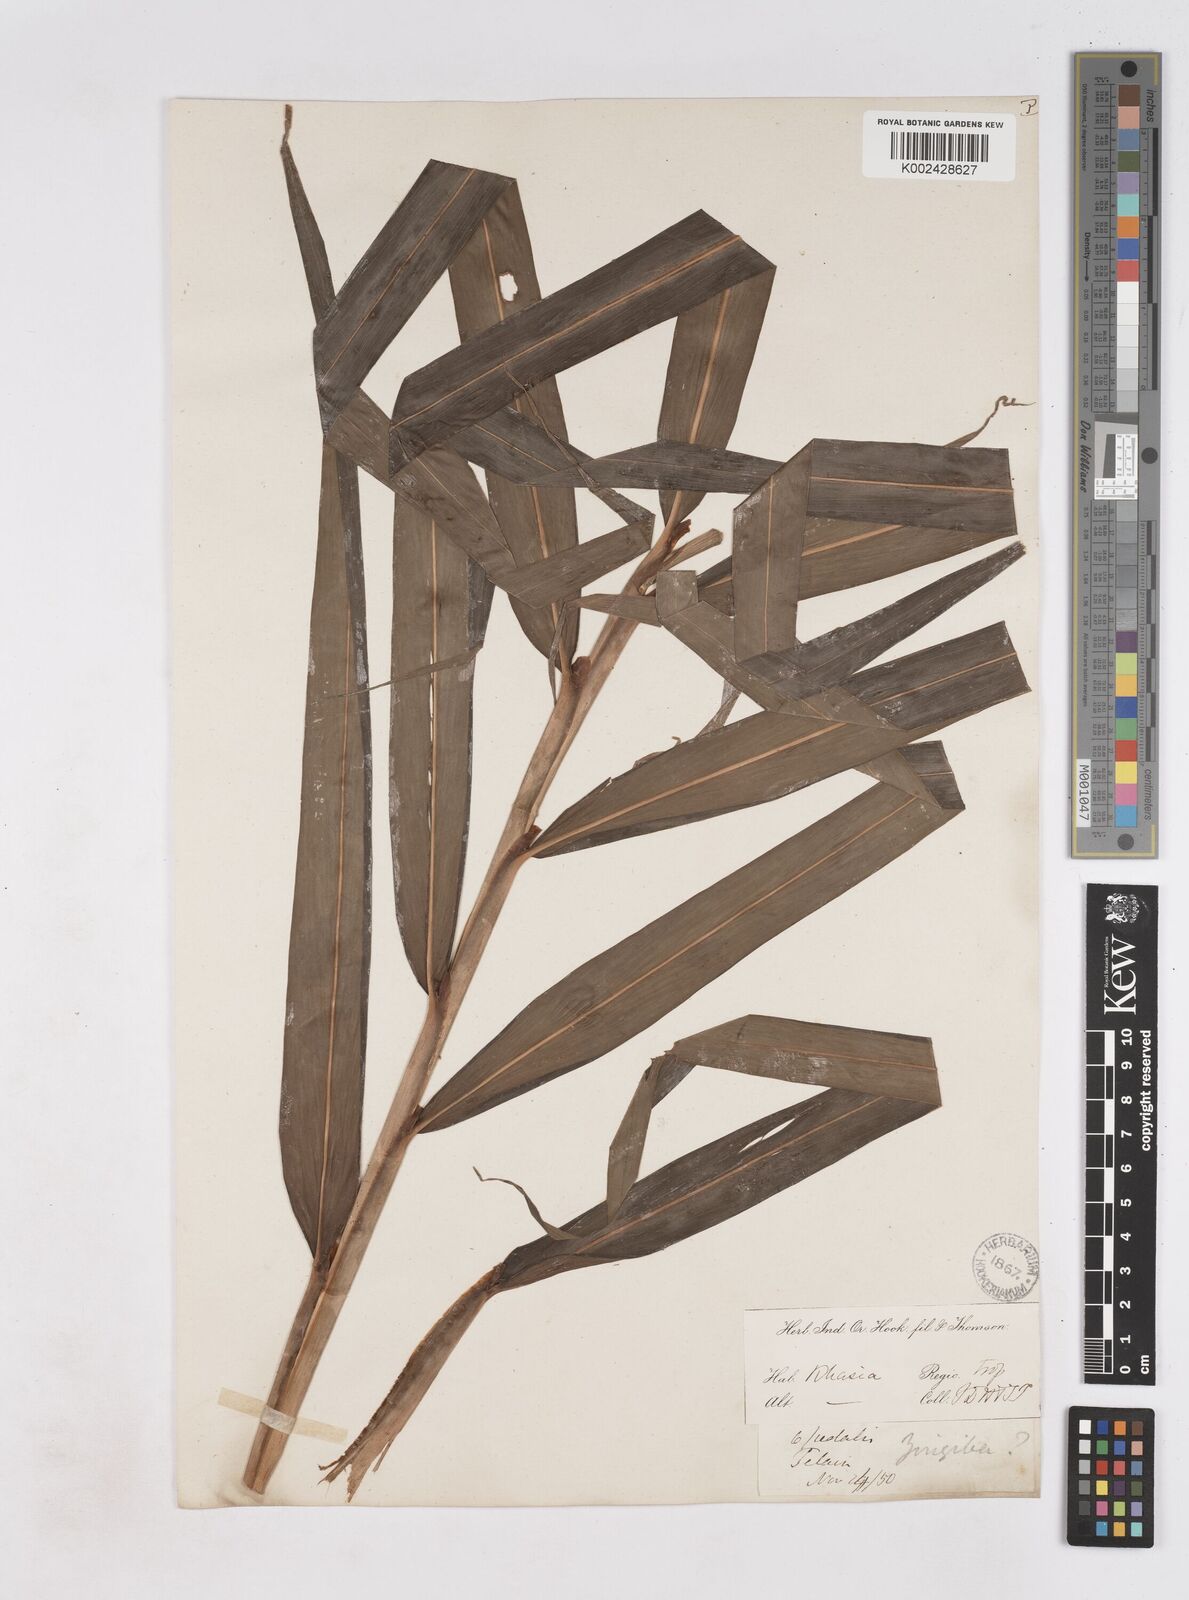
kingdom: Plantae
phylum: Tracheophyta
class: Liliopsida
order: Zingiberales
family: Zingiberaceae
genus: Zingiber
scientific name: Zingiber officinale
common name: Ginger
